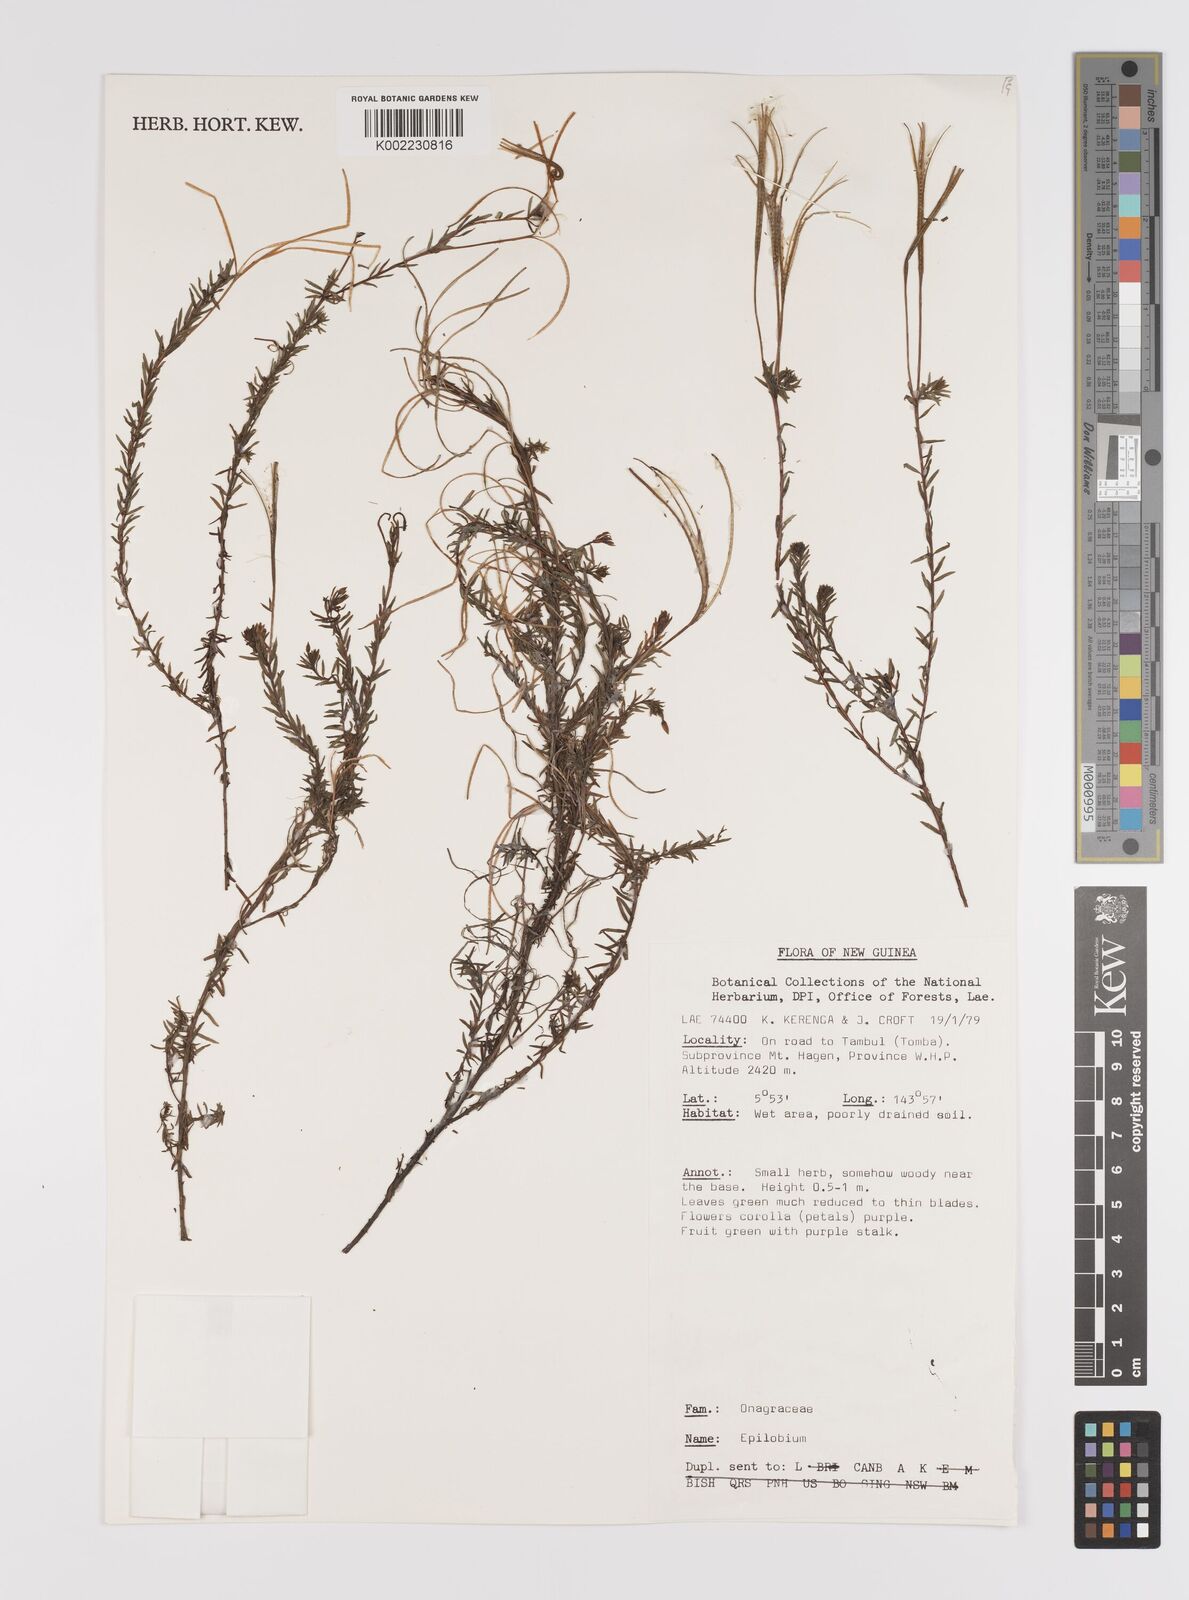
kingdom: Plantae
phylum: Tracheophyta
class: Magnoliopsida
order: Myrtales
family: Onagraceae
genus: Epilobium
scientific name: Epilobium
